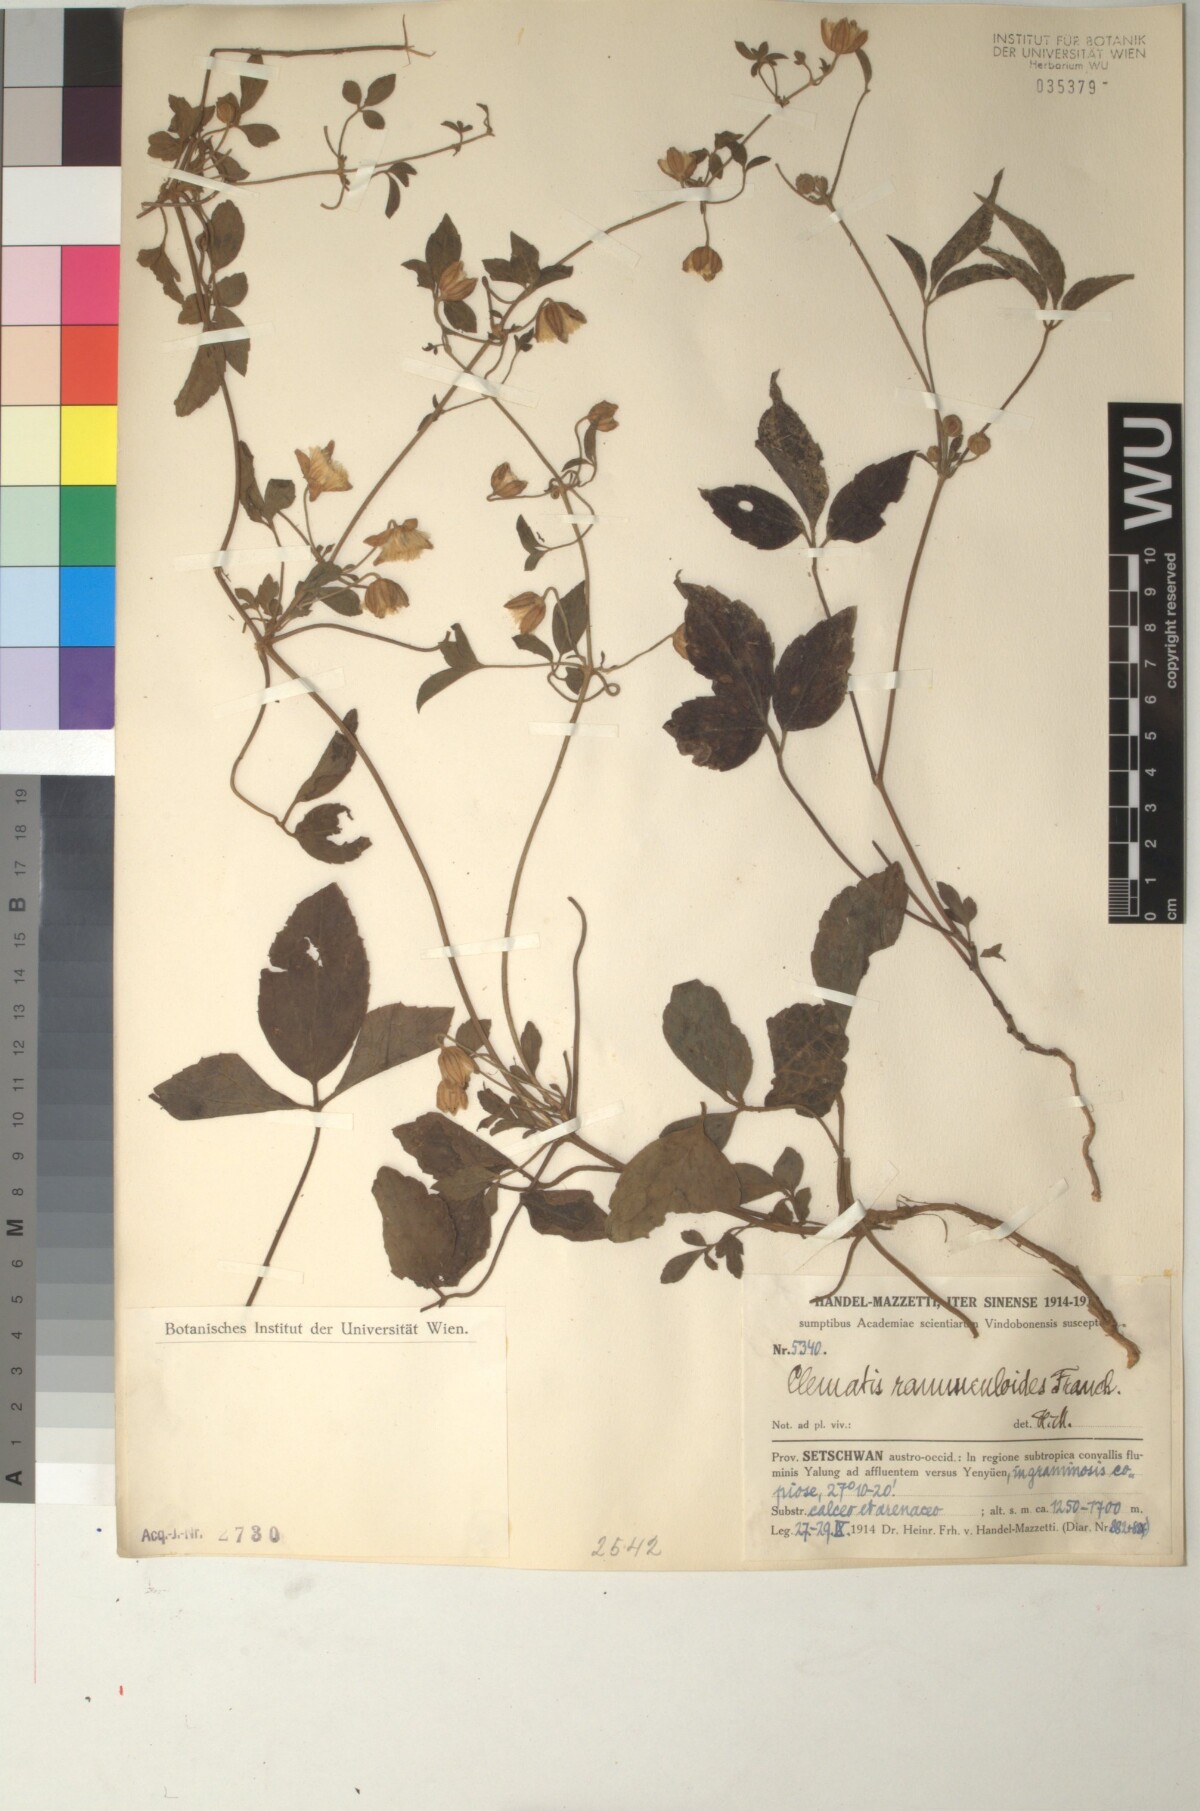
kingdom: Plantae
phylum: Tracheophyta
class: Magnoliopsida
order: Ranunculales
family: Ranunculaceae
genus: Clematis
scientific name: Clematis ranunculoides
